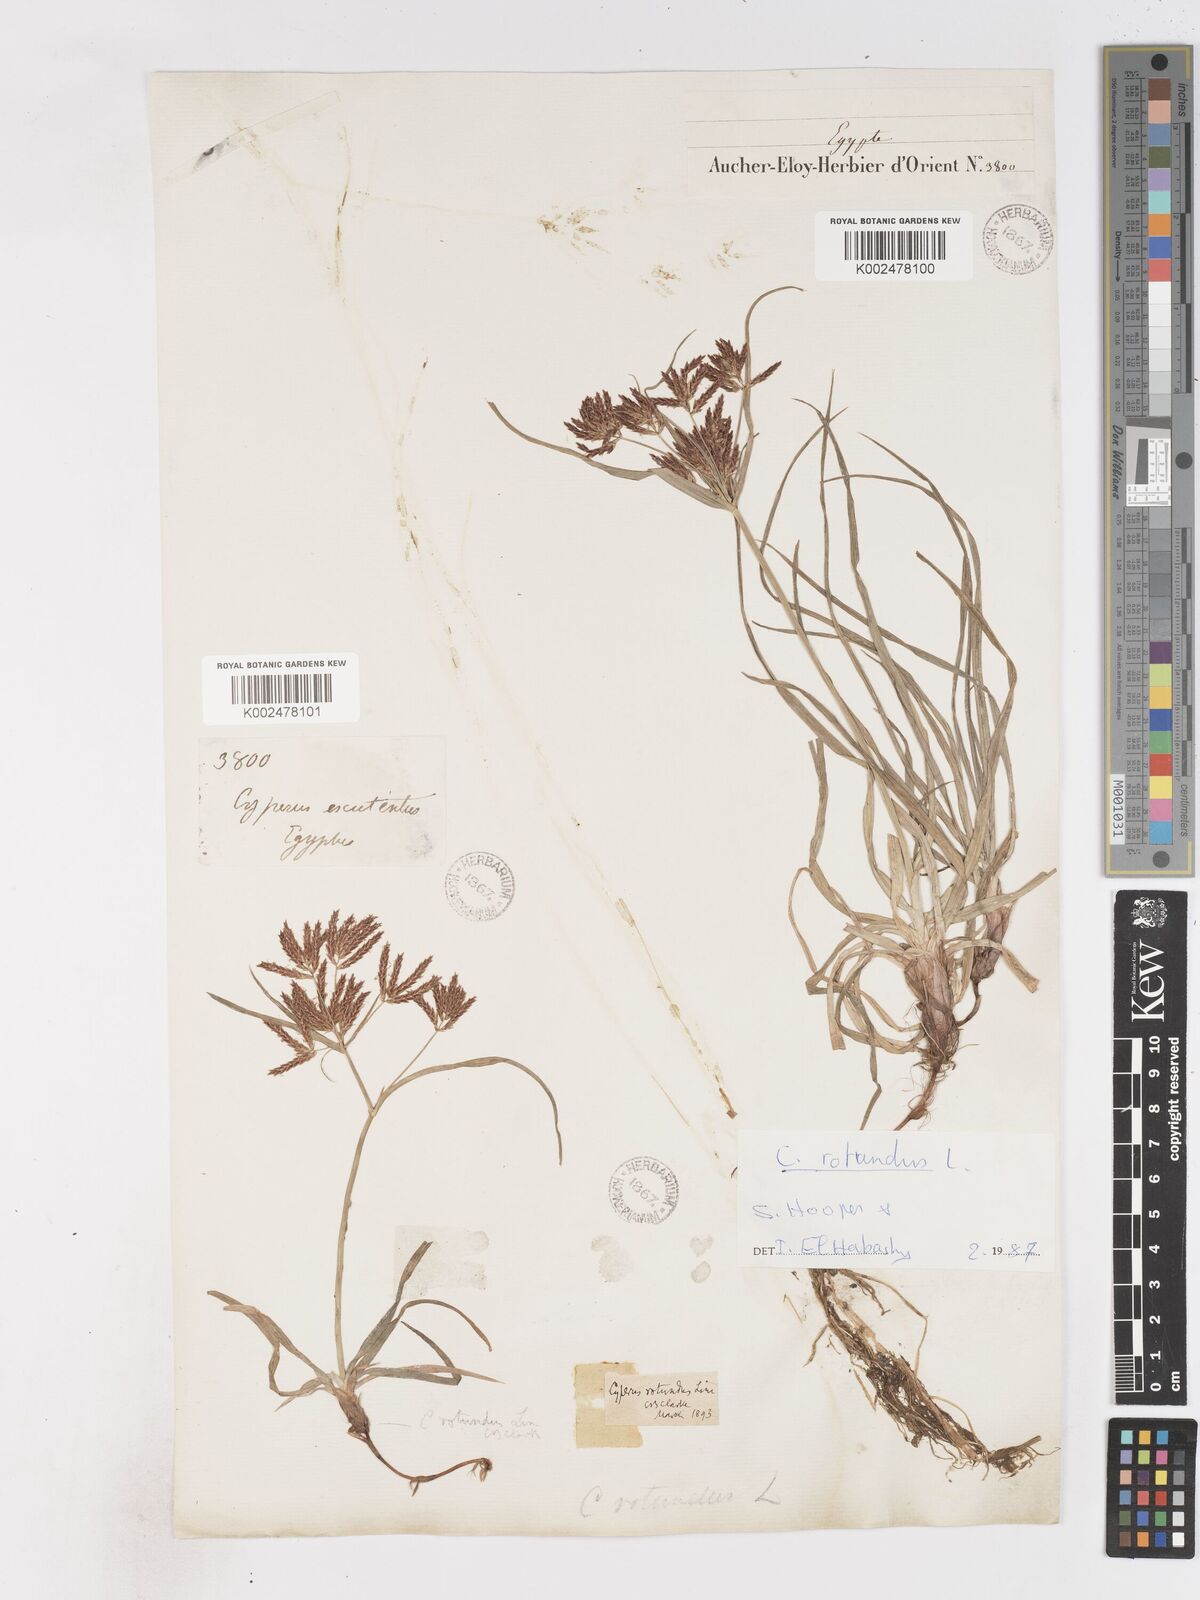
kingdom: Plantae
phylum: Tracheophyta
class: Liliopsida
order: Poales
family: Cyperaceae
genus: Cyperus
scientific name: Cyperus rotundus
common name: Nutgrass
